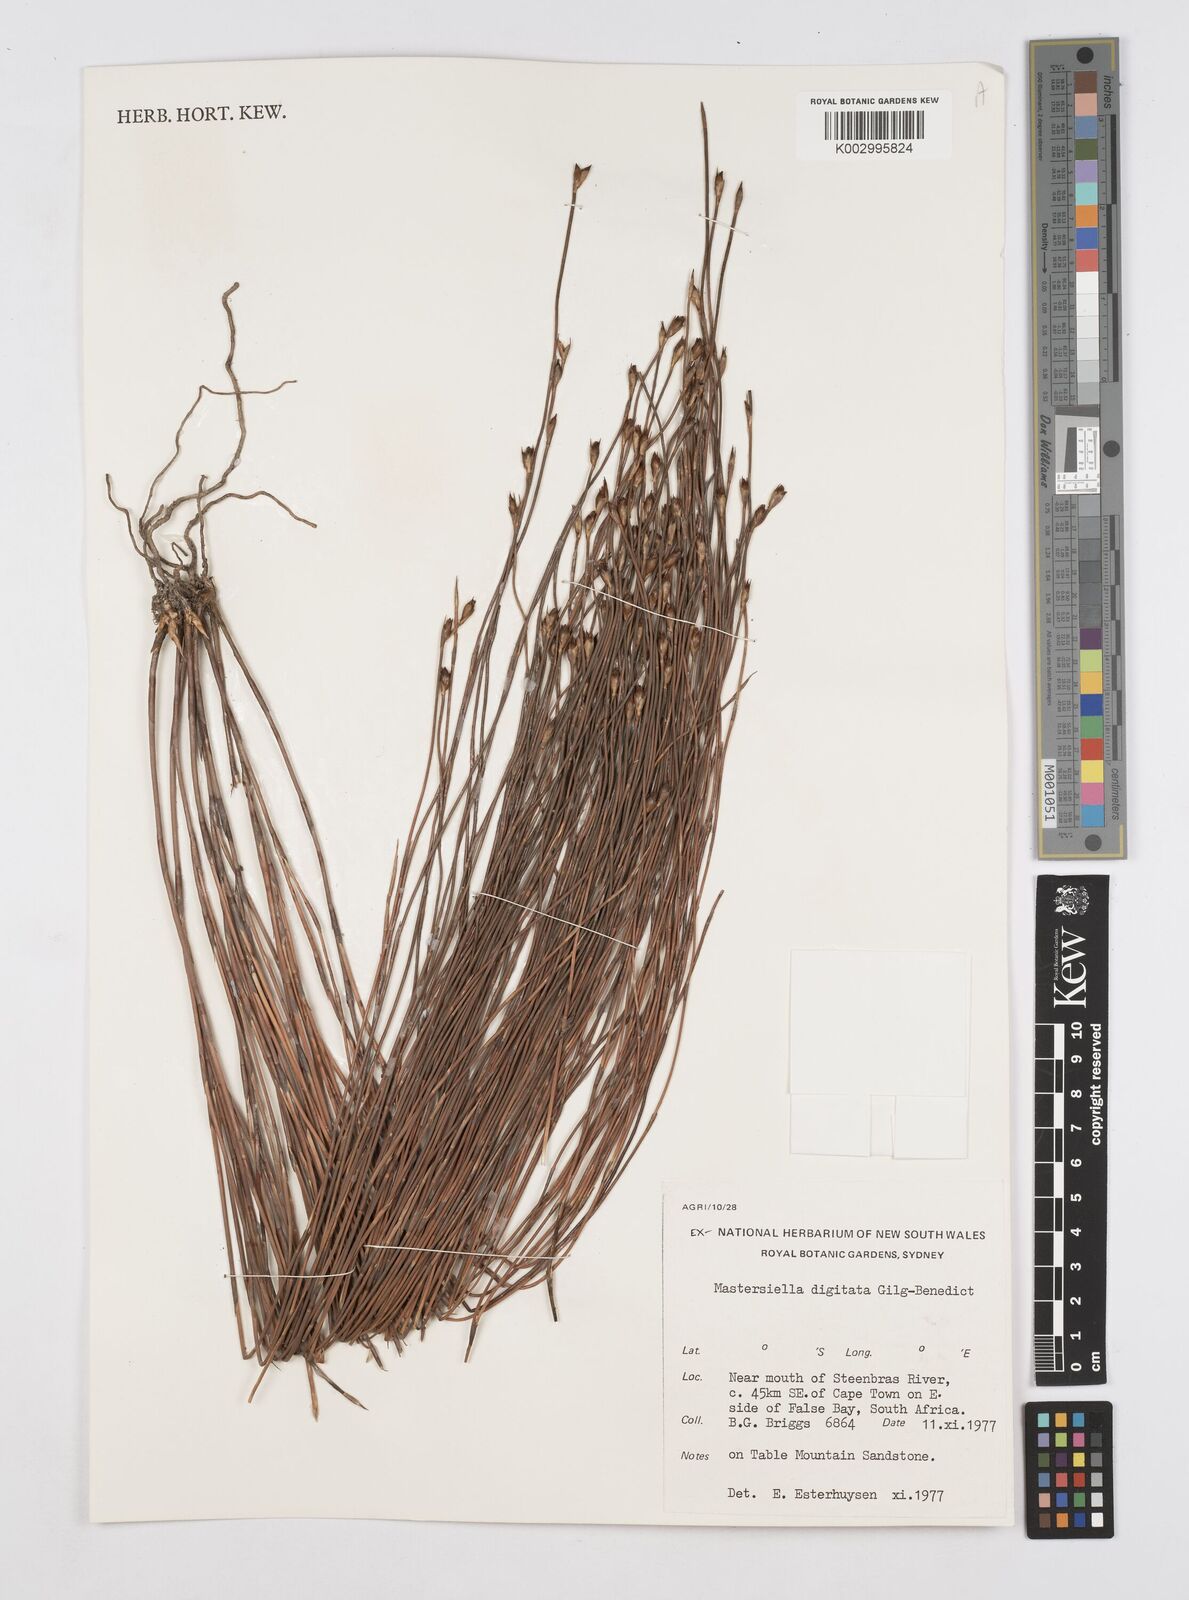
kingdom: Plantae
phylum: Tracheophyta
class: Liliopsida
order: Poales
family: Restionaceae
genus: Mastersiella
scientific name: Mastersiella digitata
